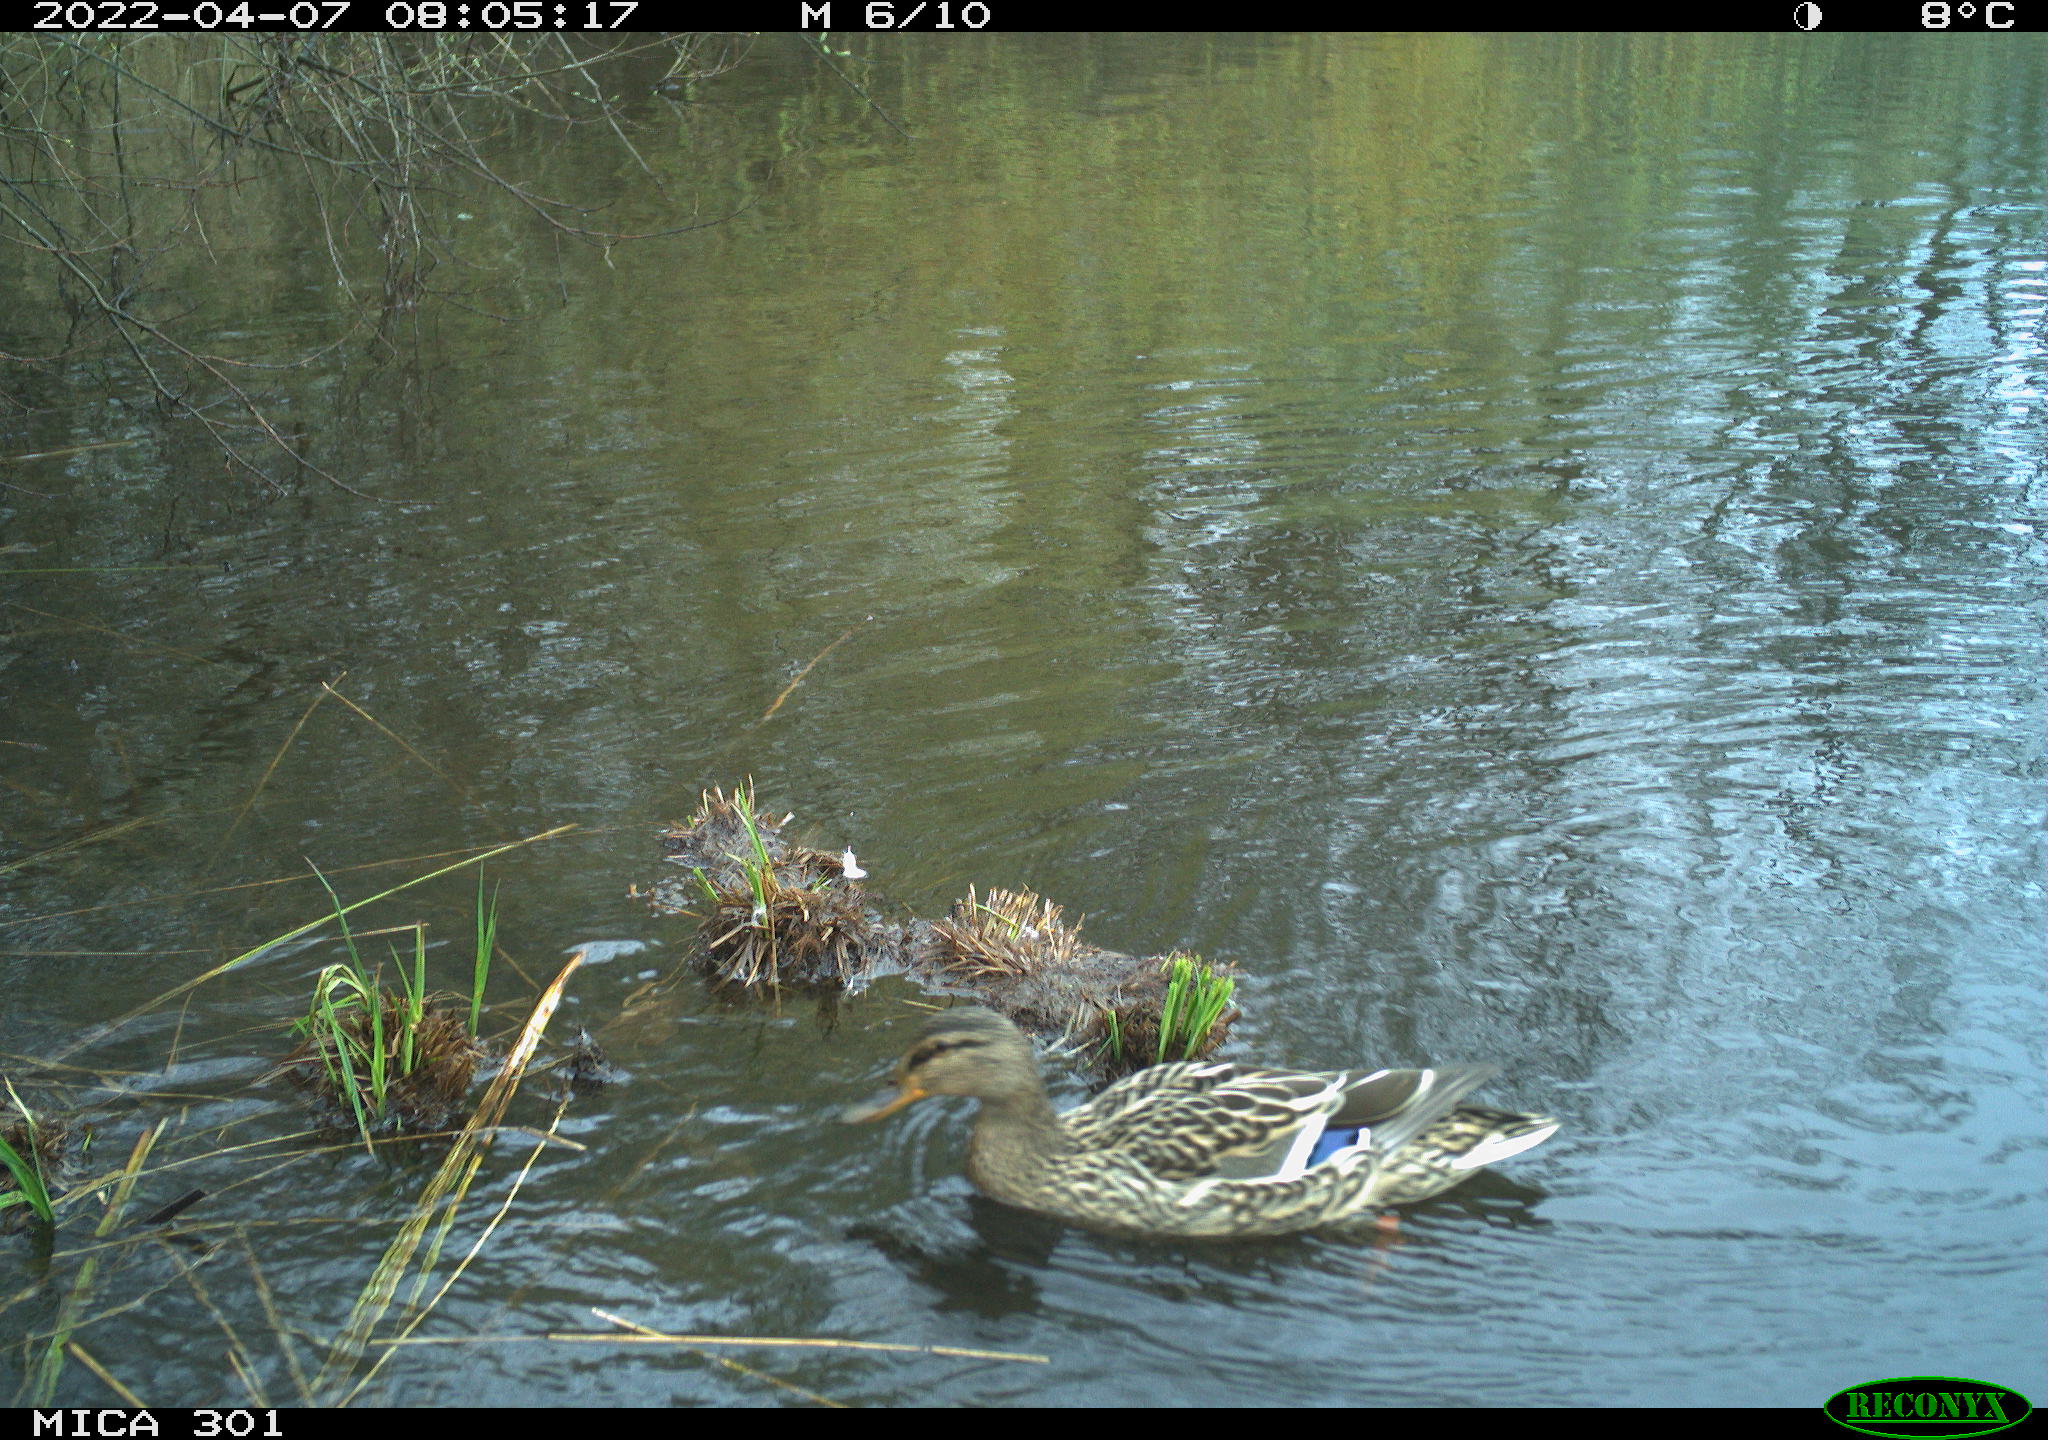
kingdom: Animalia
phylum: Chordata
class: Aves
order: Anseriformes
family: Anatidae
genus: Mareca
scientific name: Mareca strepera
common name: Gadwall
